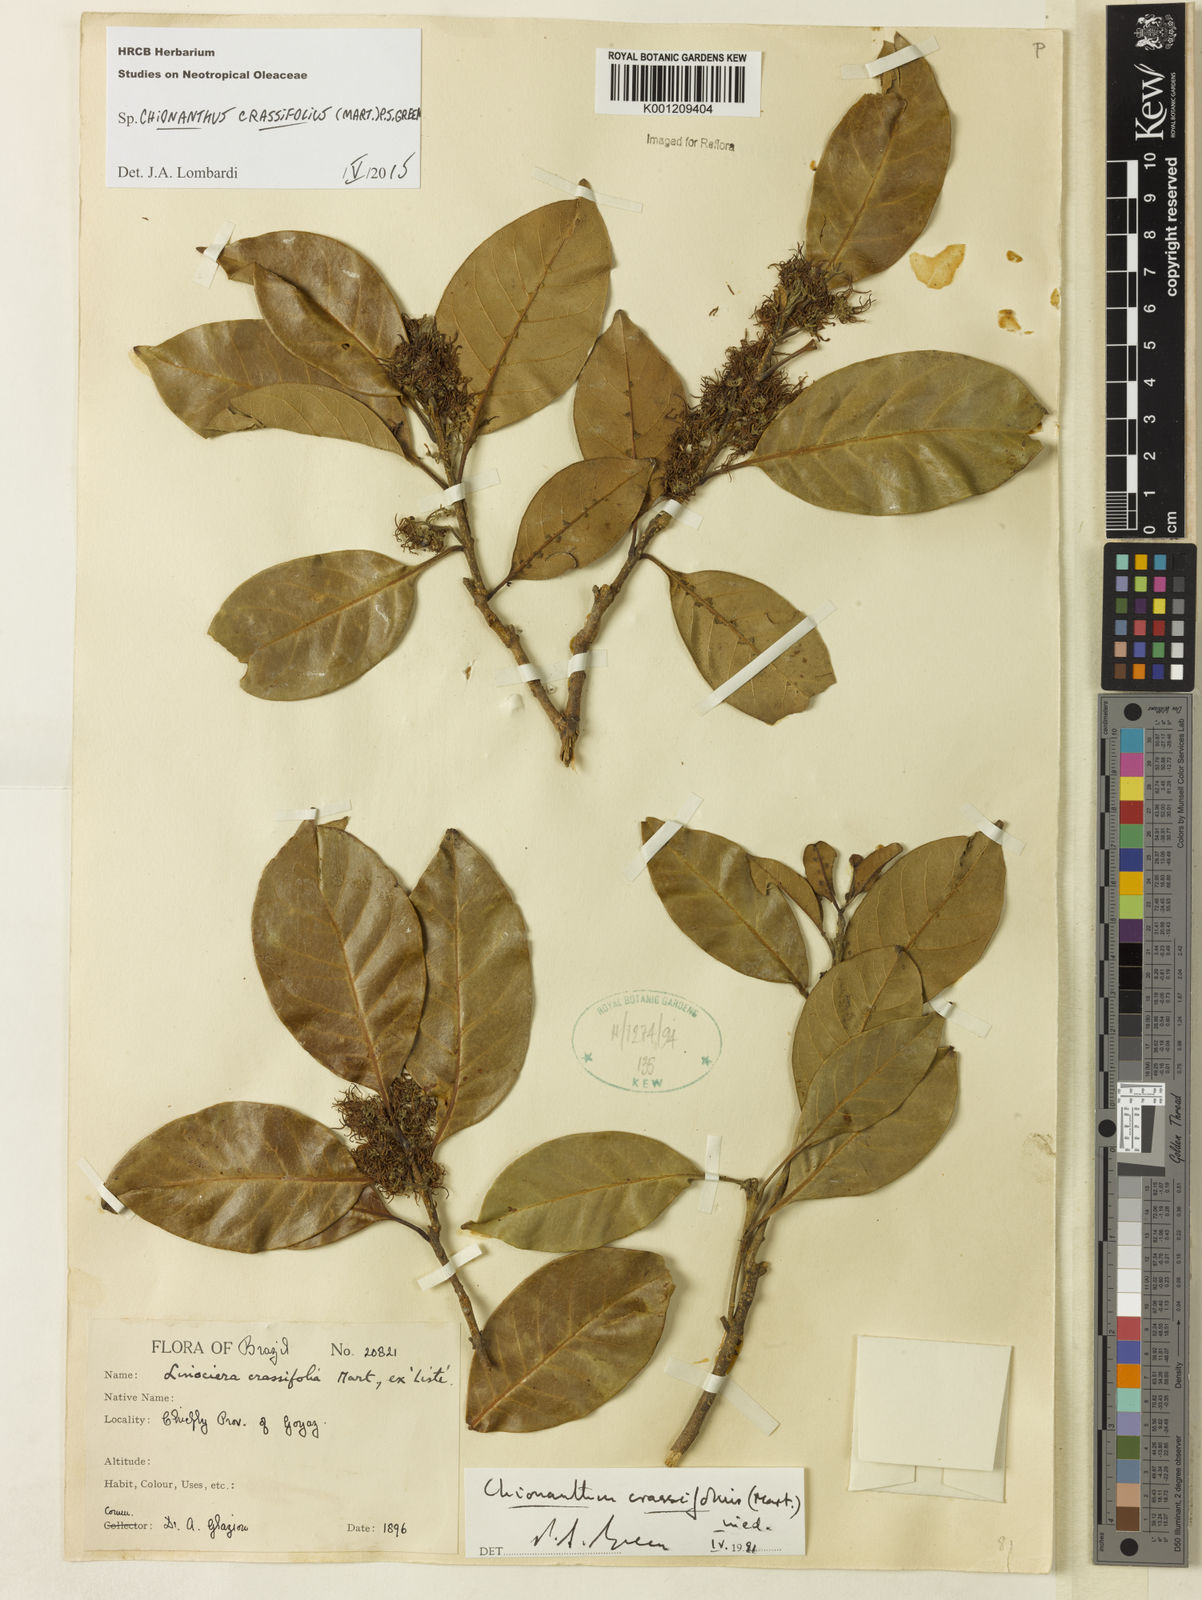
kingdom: Plantae
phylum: Tracheophyta
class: Magnoliopsida
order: Lamiales
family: Oleaceae
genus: Chionanthus
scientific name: Chionanthus crassifolius
